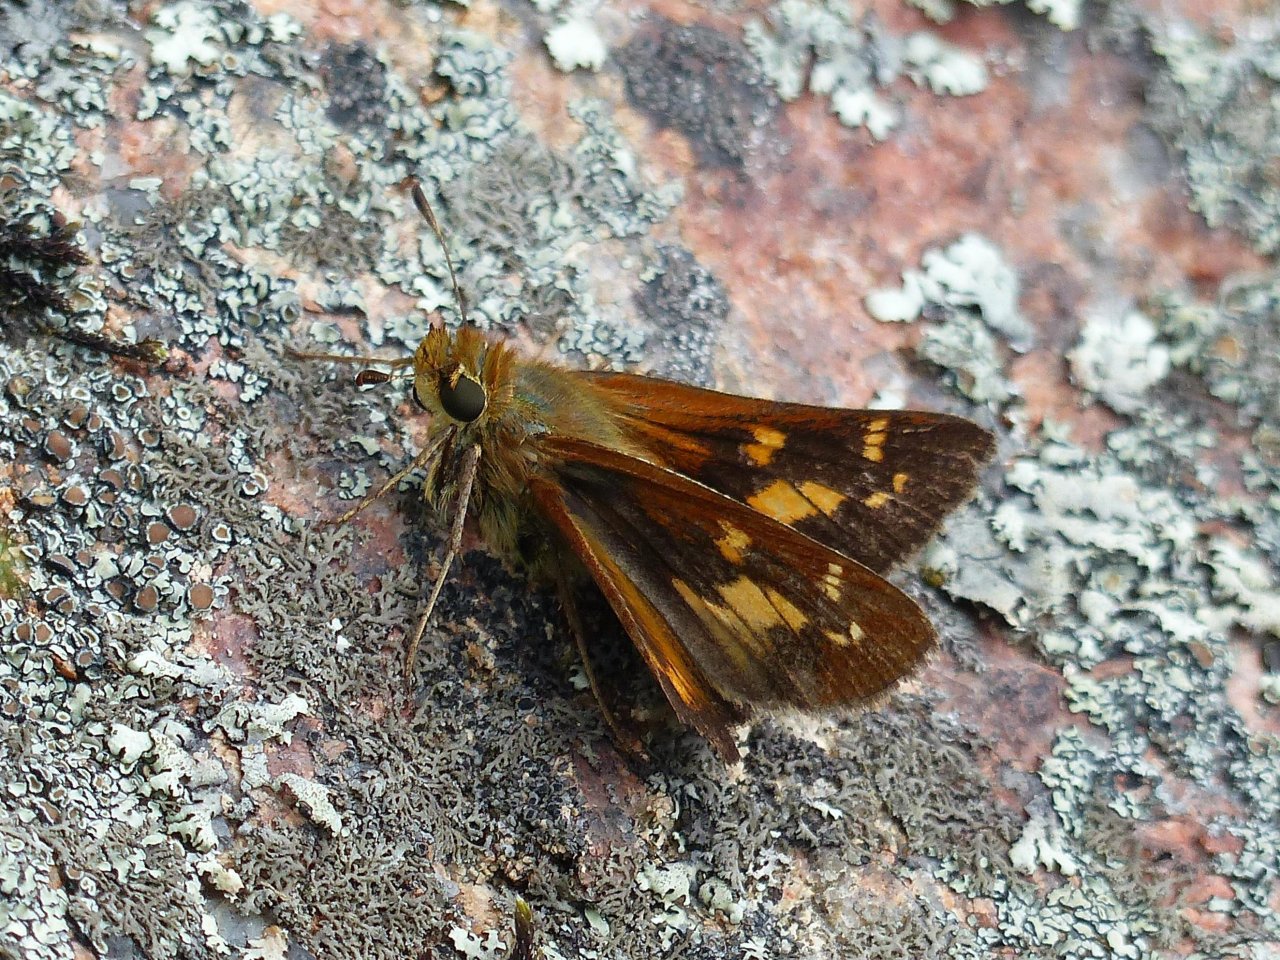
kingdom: Animalia
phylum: Arthropoda
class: Insecta
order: Lepidoptera
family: Hesperiidae
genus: Hesperia
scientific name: Hesperia leonardus
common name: Leonard's Skipper
